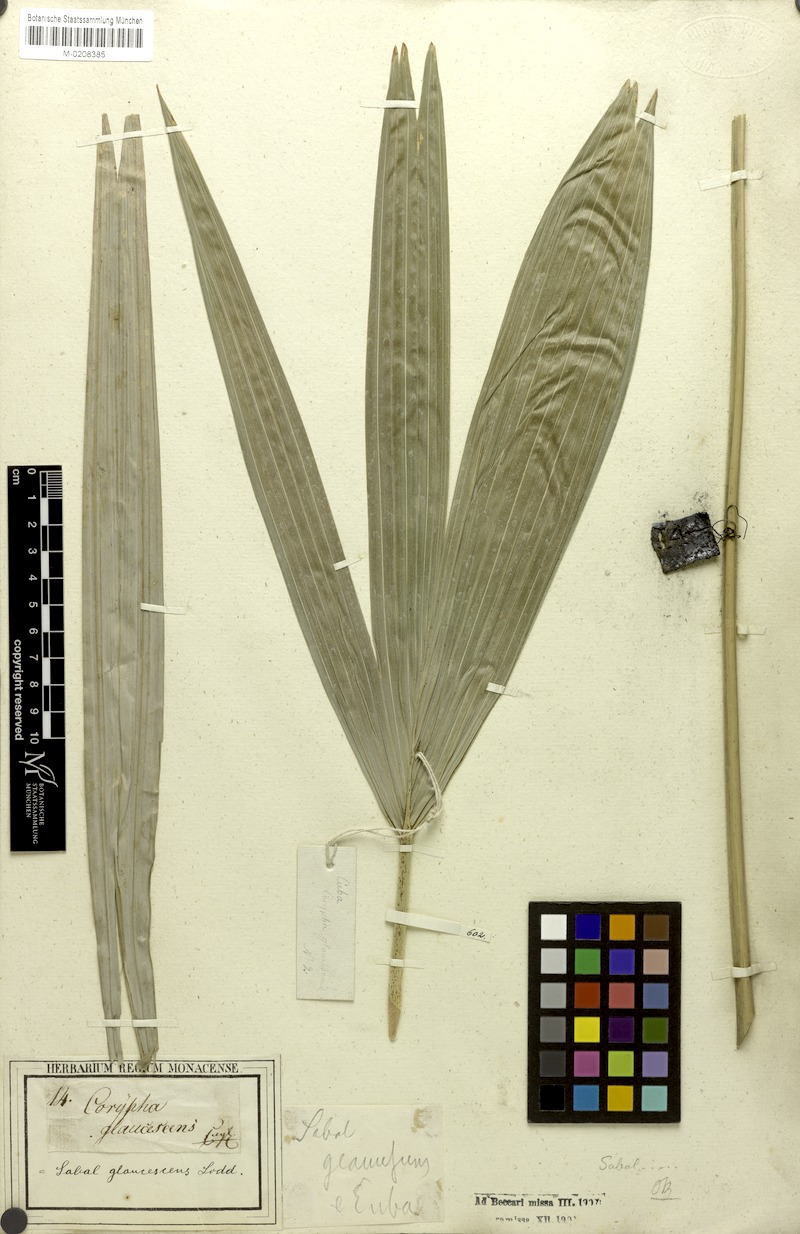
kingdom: Plantae
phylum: Tracheophyta
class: Liliopsida
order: Arecales
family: Arecaceae
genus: Sabal
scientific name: Sabal mauritiiformis
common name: Trinidad palm
